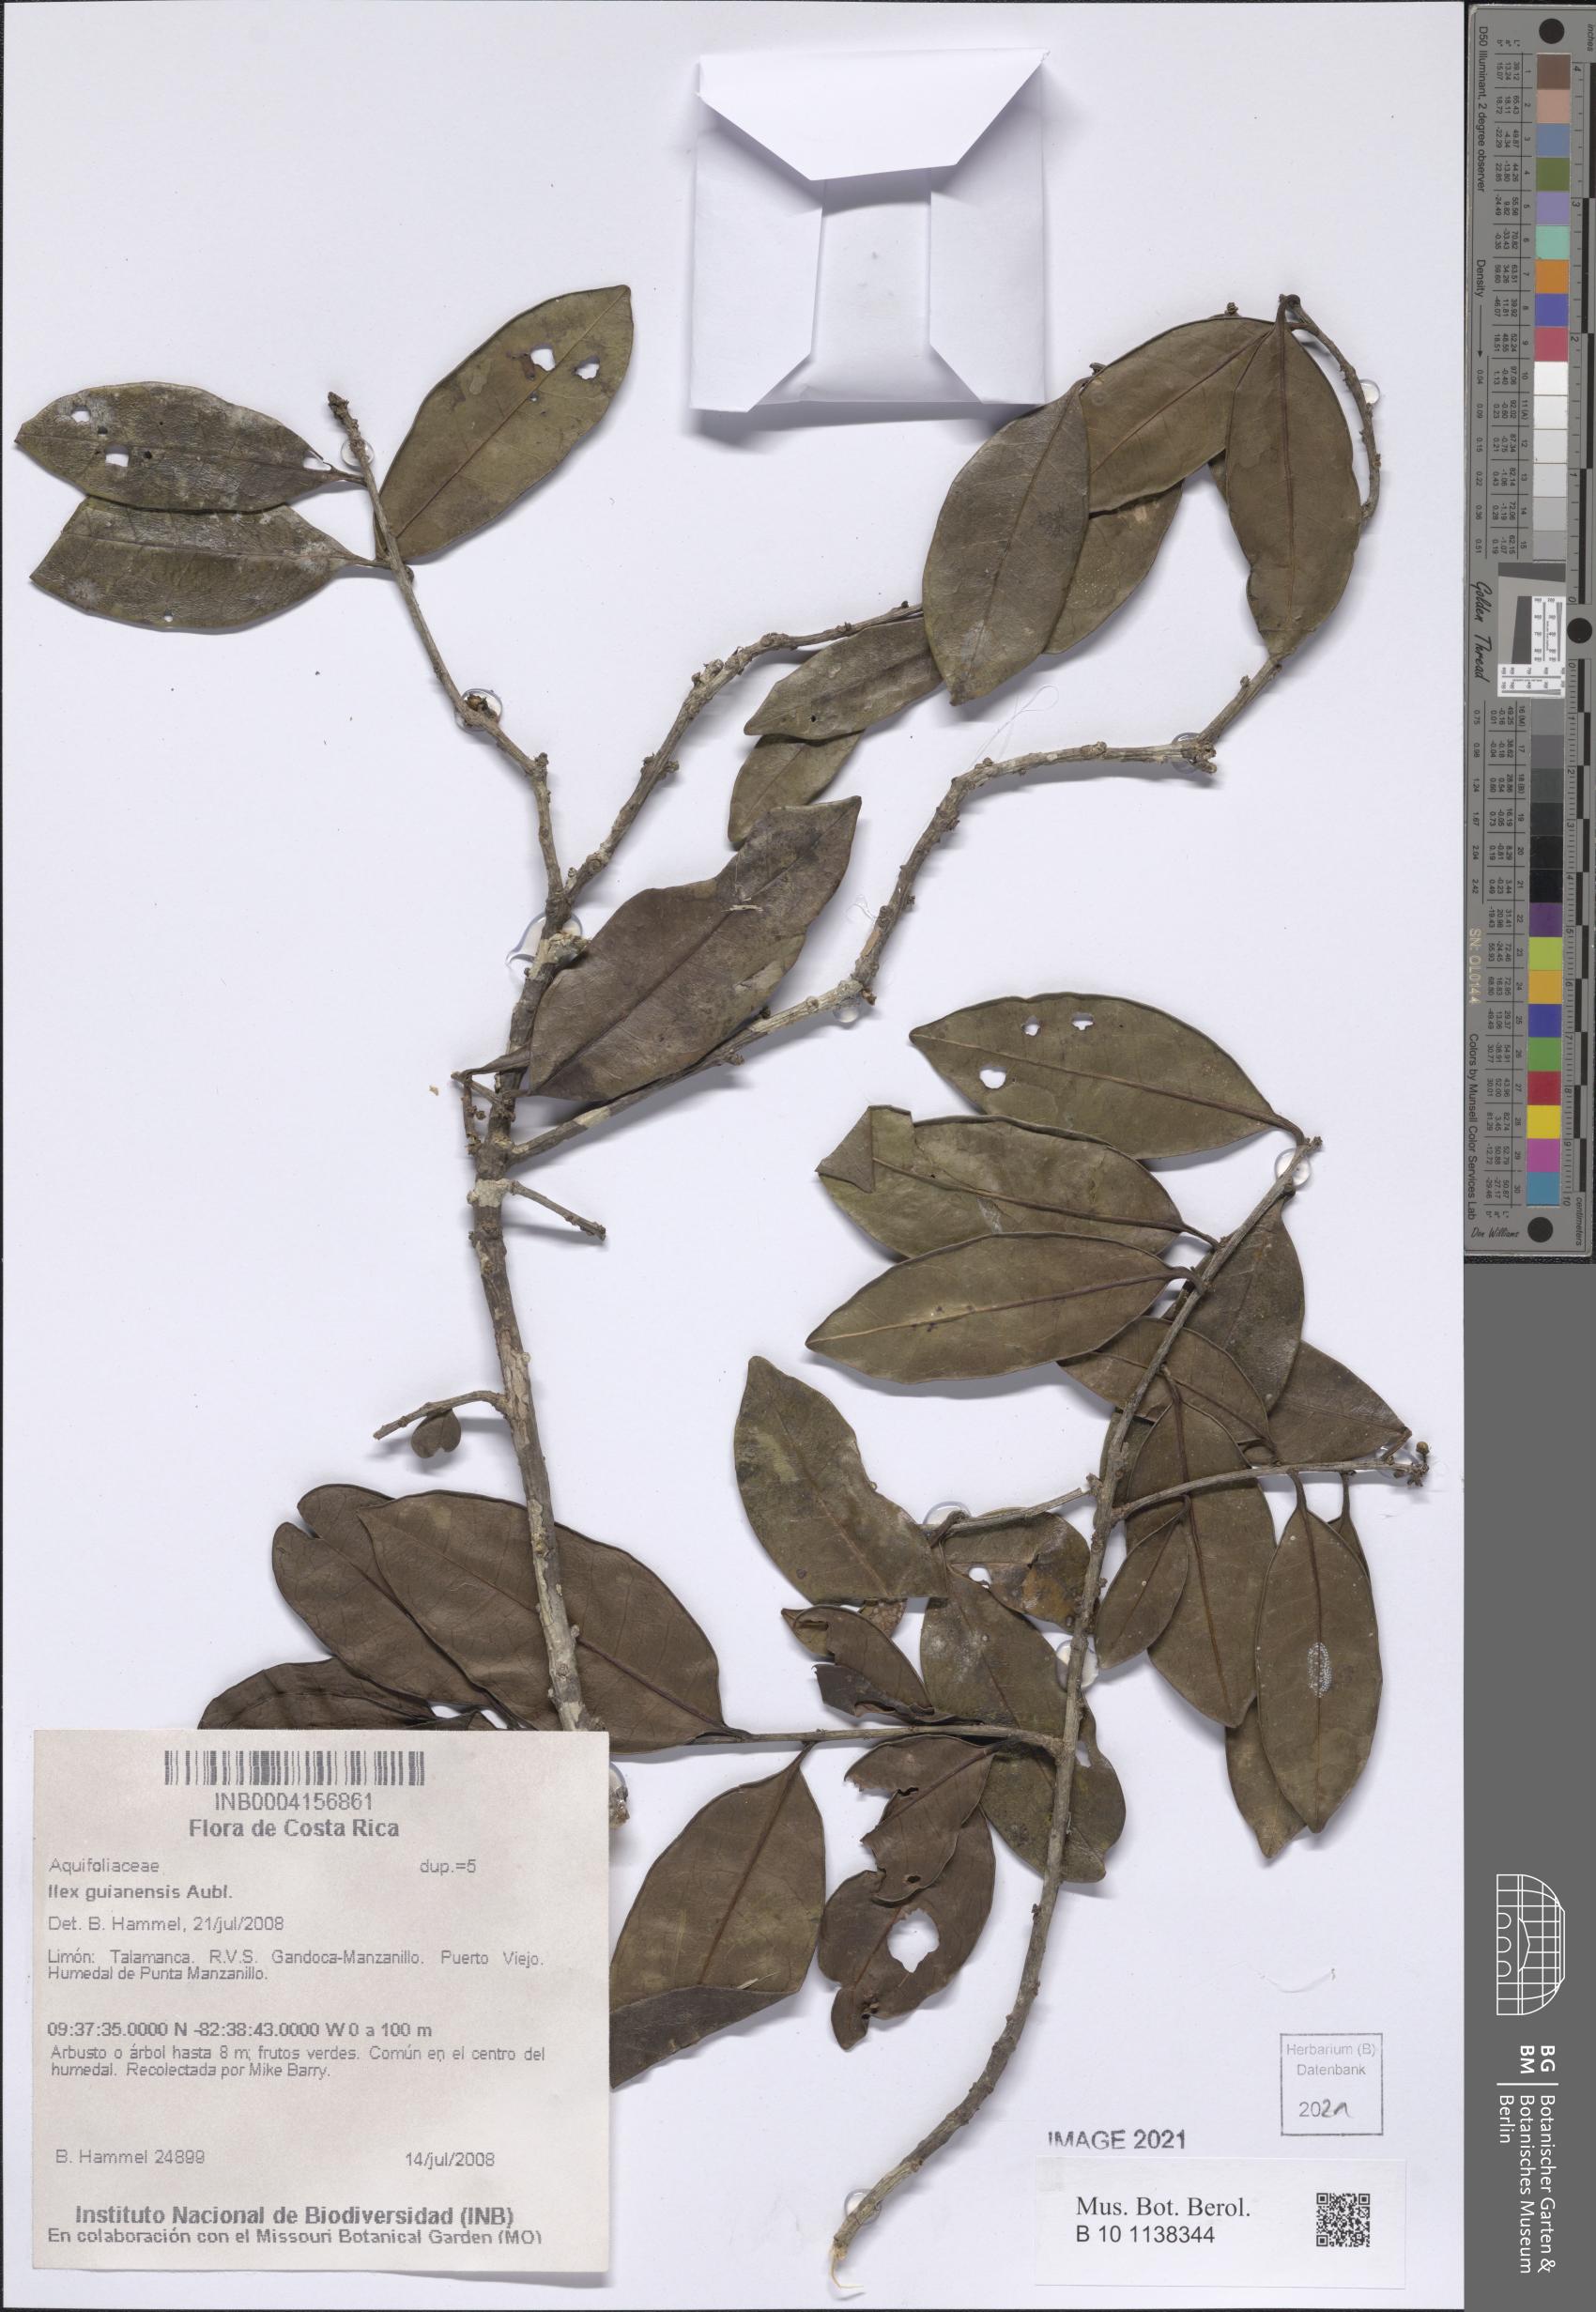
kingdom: Plantae
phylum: Tracheophyta
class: Magnoliopsida
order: Aquifoliales
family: Aquifoliaceae
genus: Ilex
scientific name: Ilex guianensis
